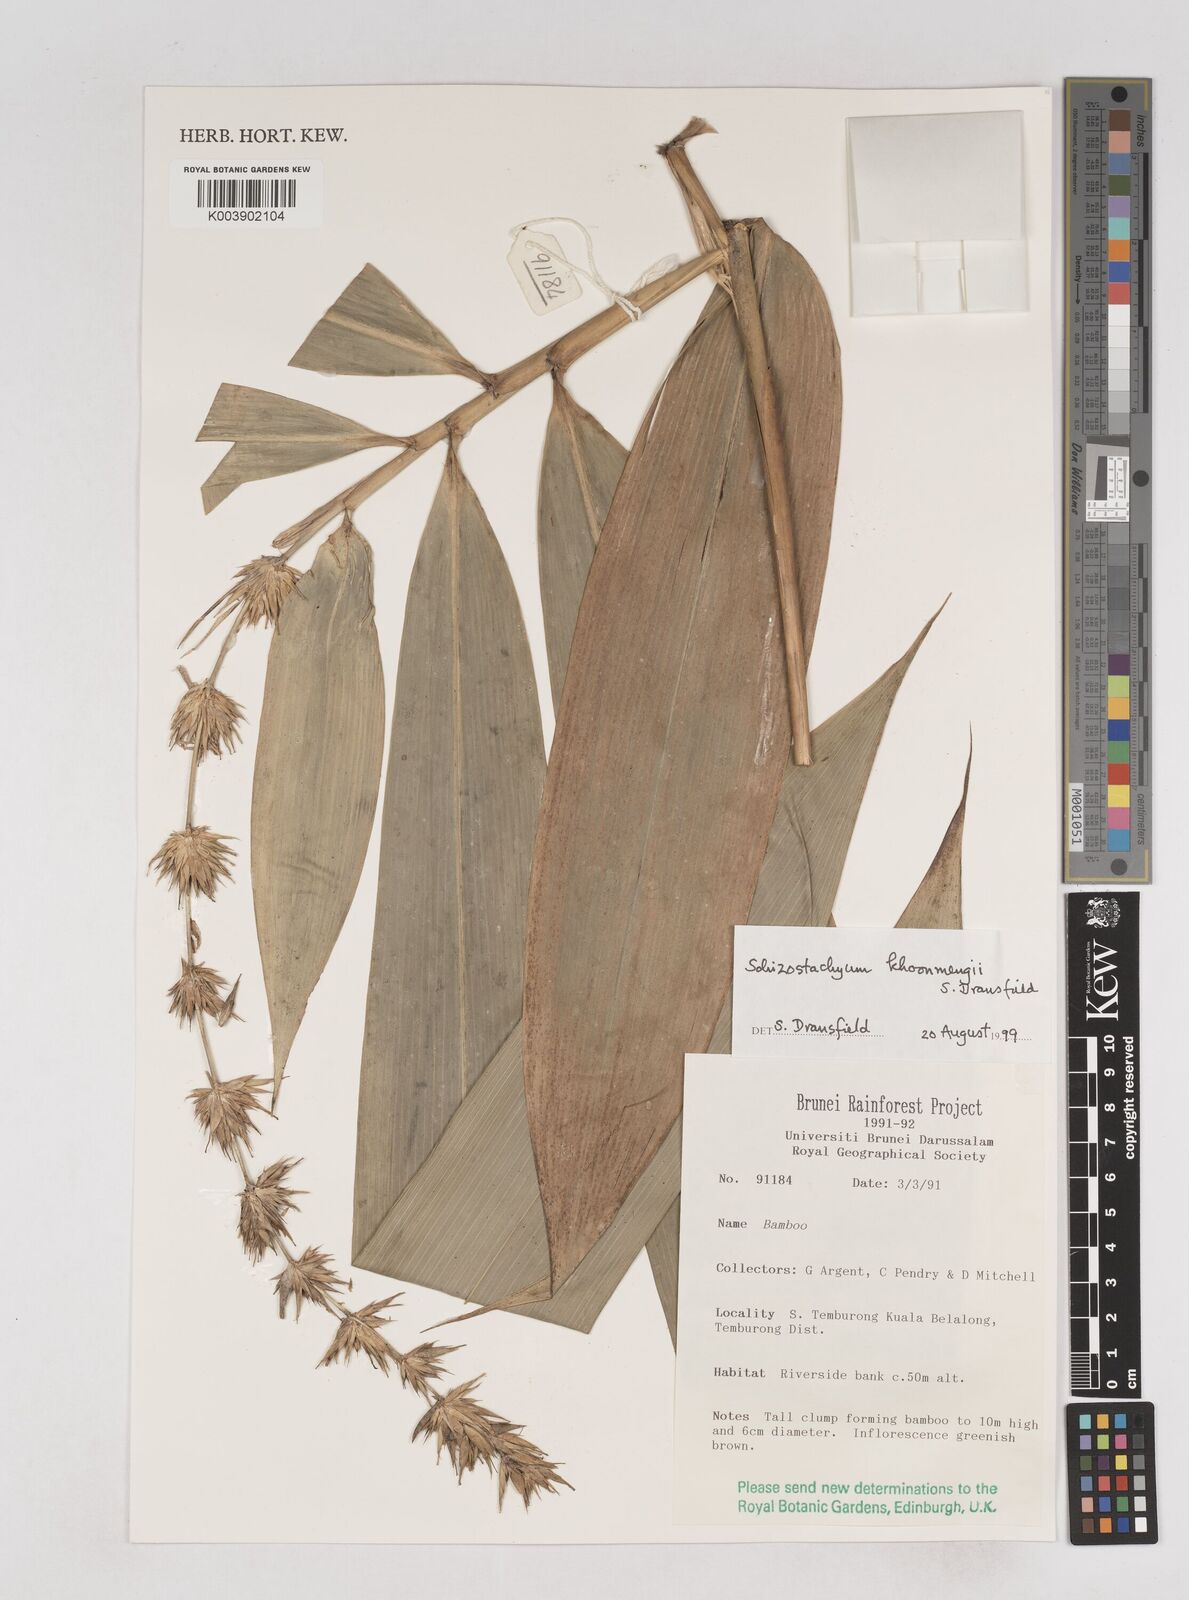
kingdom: Plantae
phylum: Tracheophyta
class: Liliopsida
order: Poales
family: Poaceae
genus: Schizostachyum
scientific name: Schizostachyum khoonmengii
